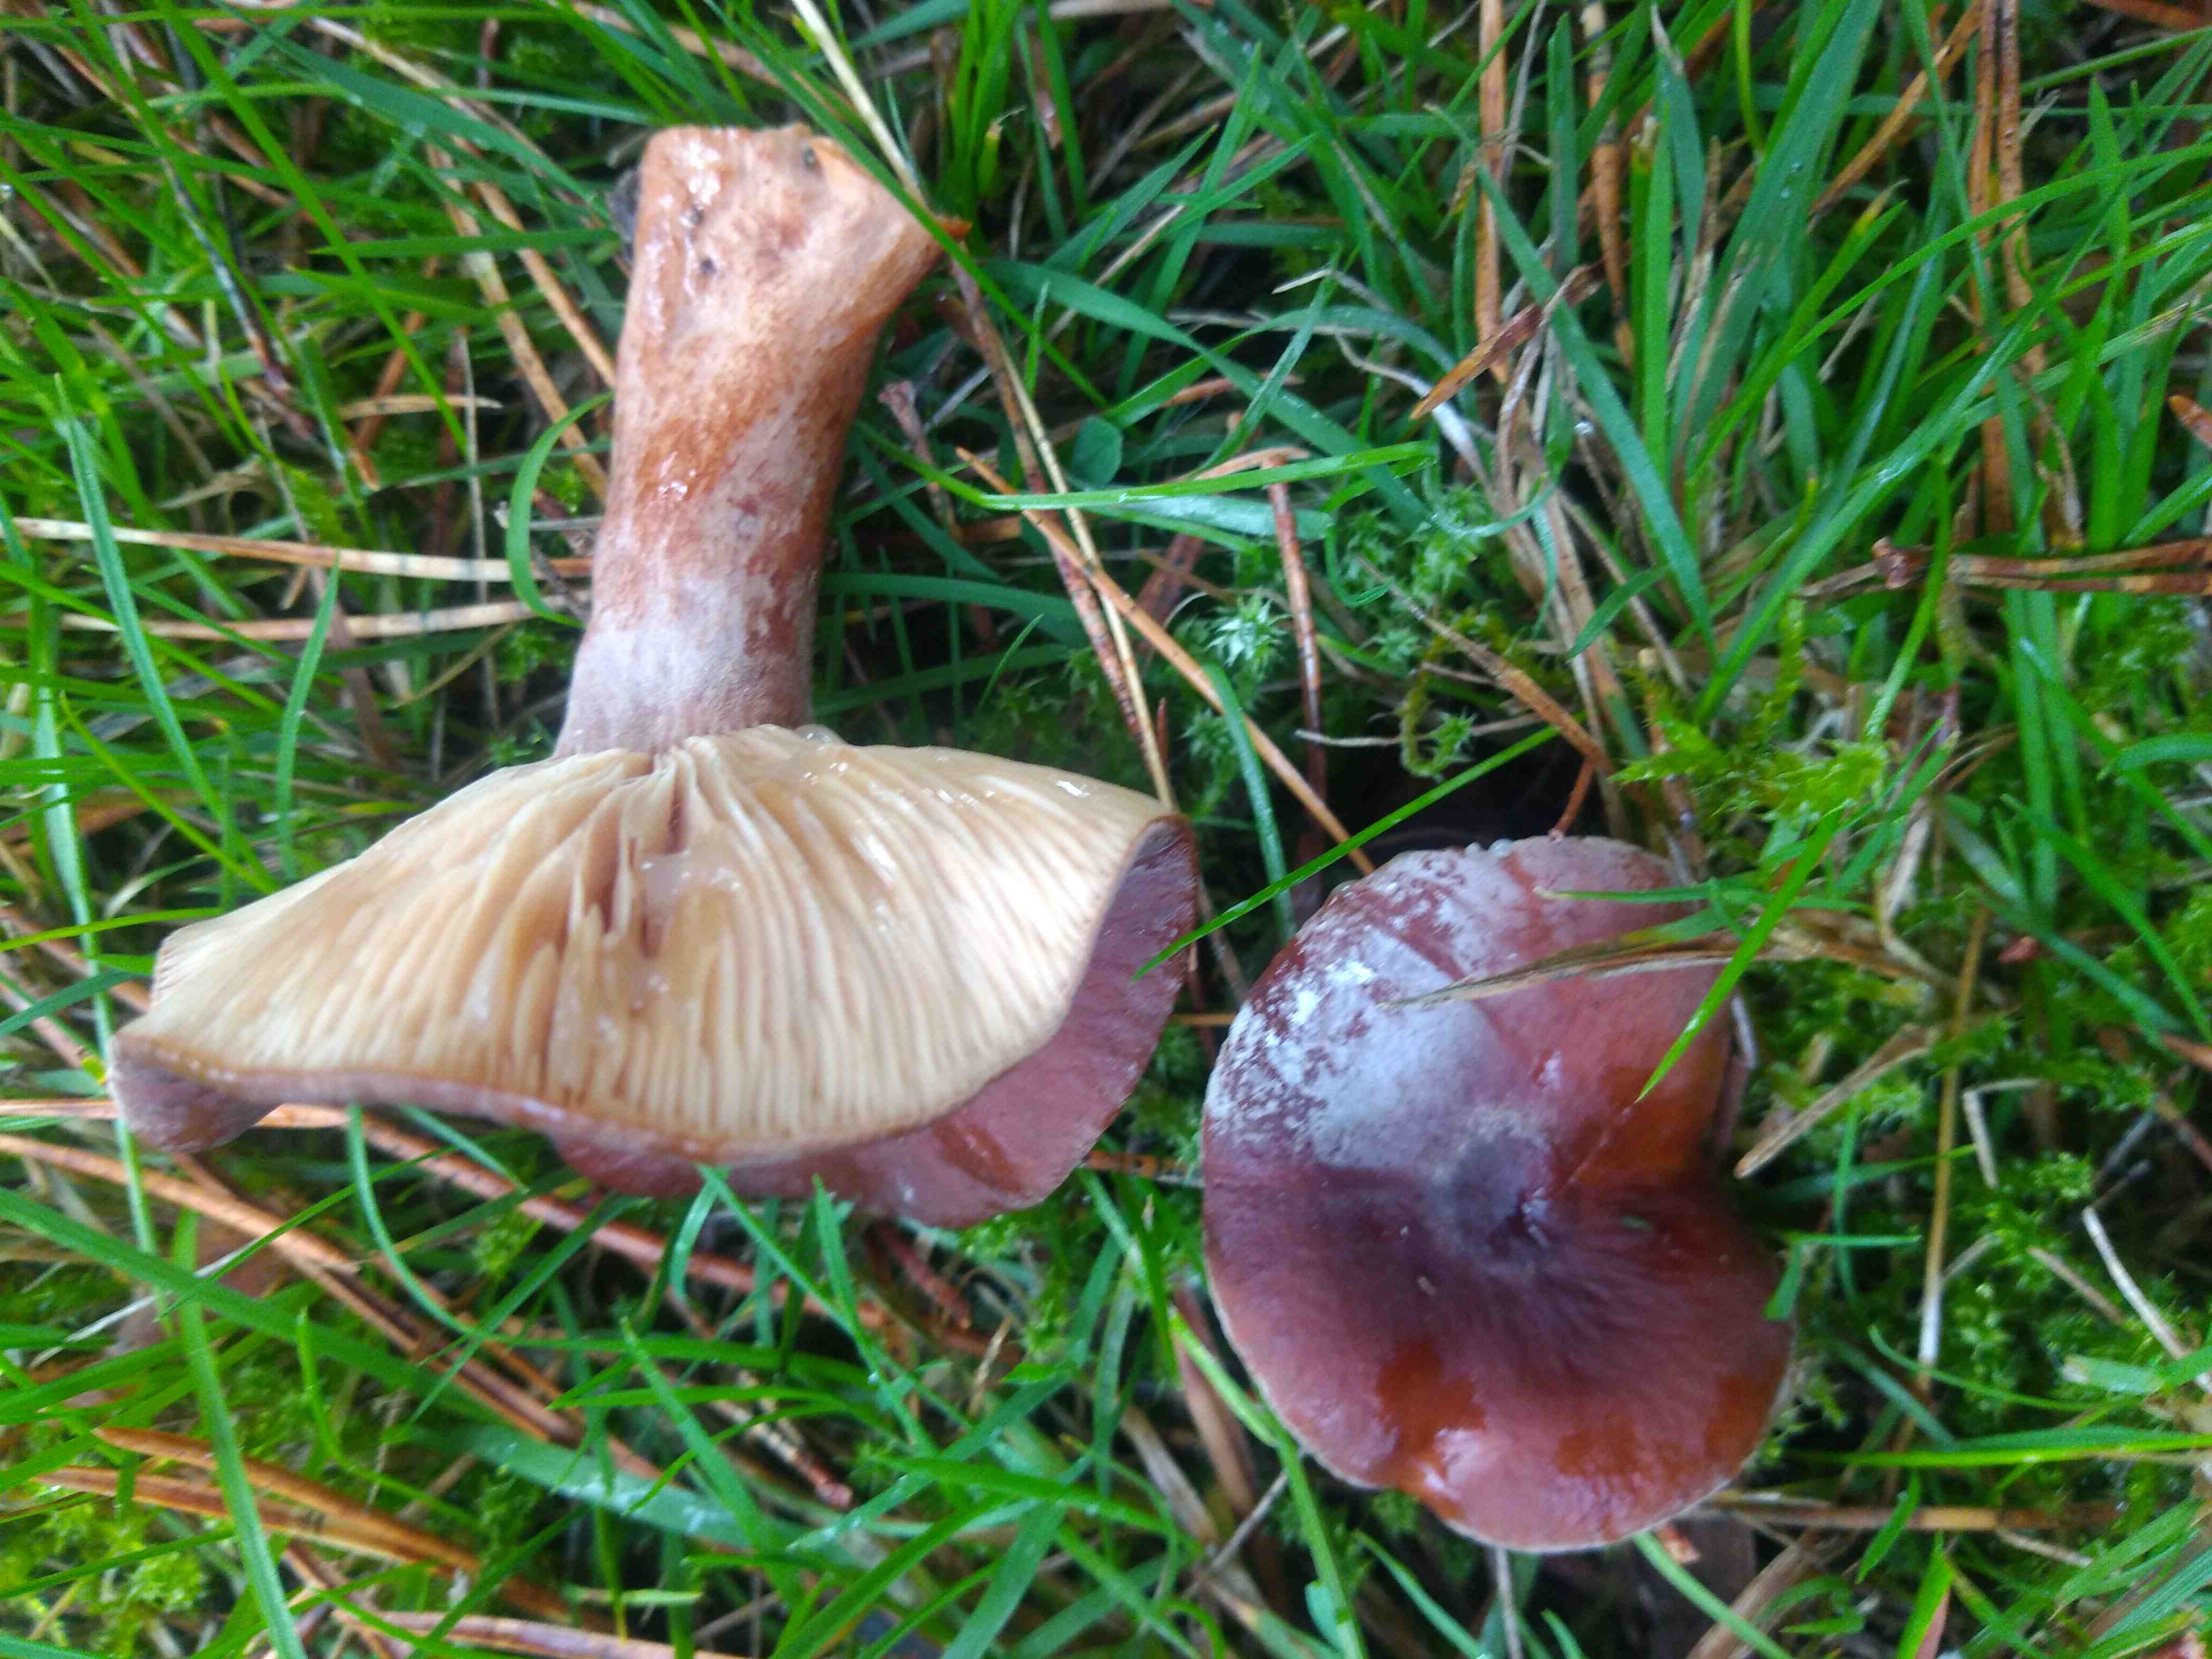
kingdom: Fungi
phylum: Basidiomycota
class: Agaricomycetes
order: Russulales
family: Russulaceae
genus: Lactarius
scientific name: Lactarius serifluus
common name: tæge-mælkehat
